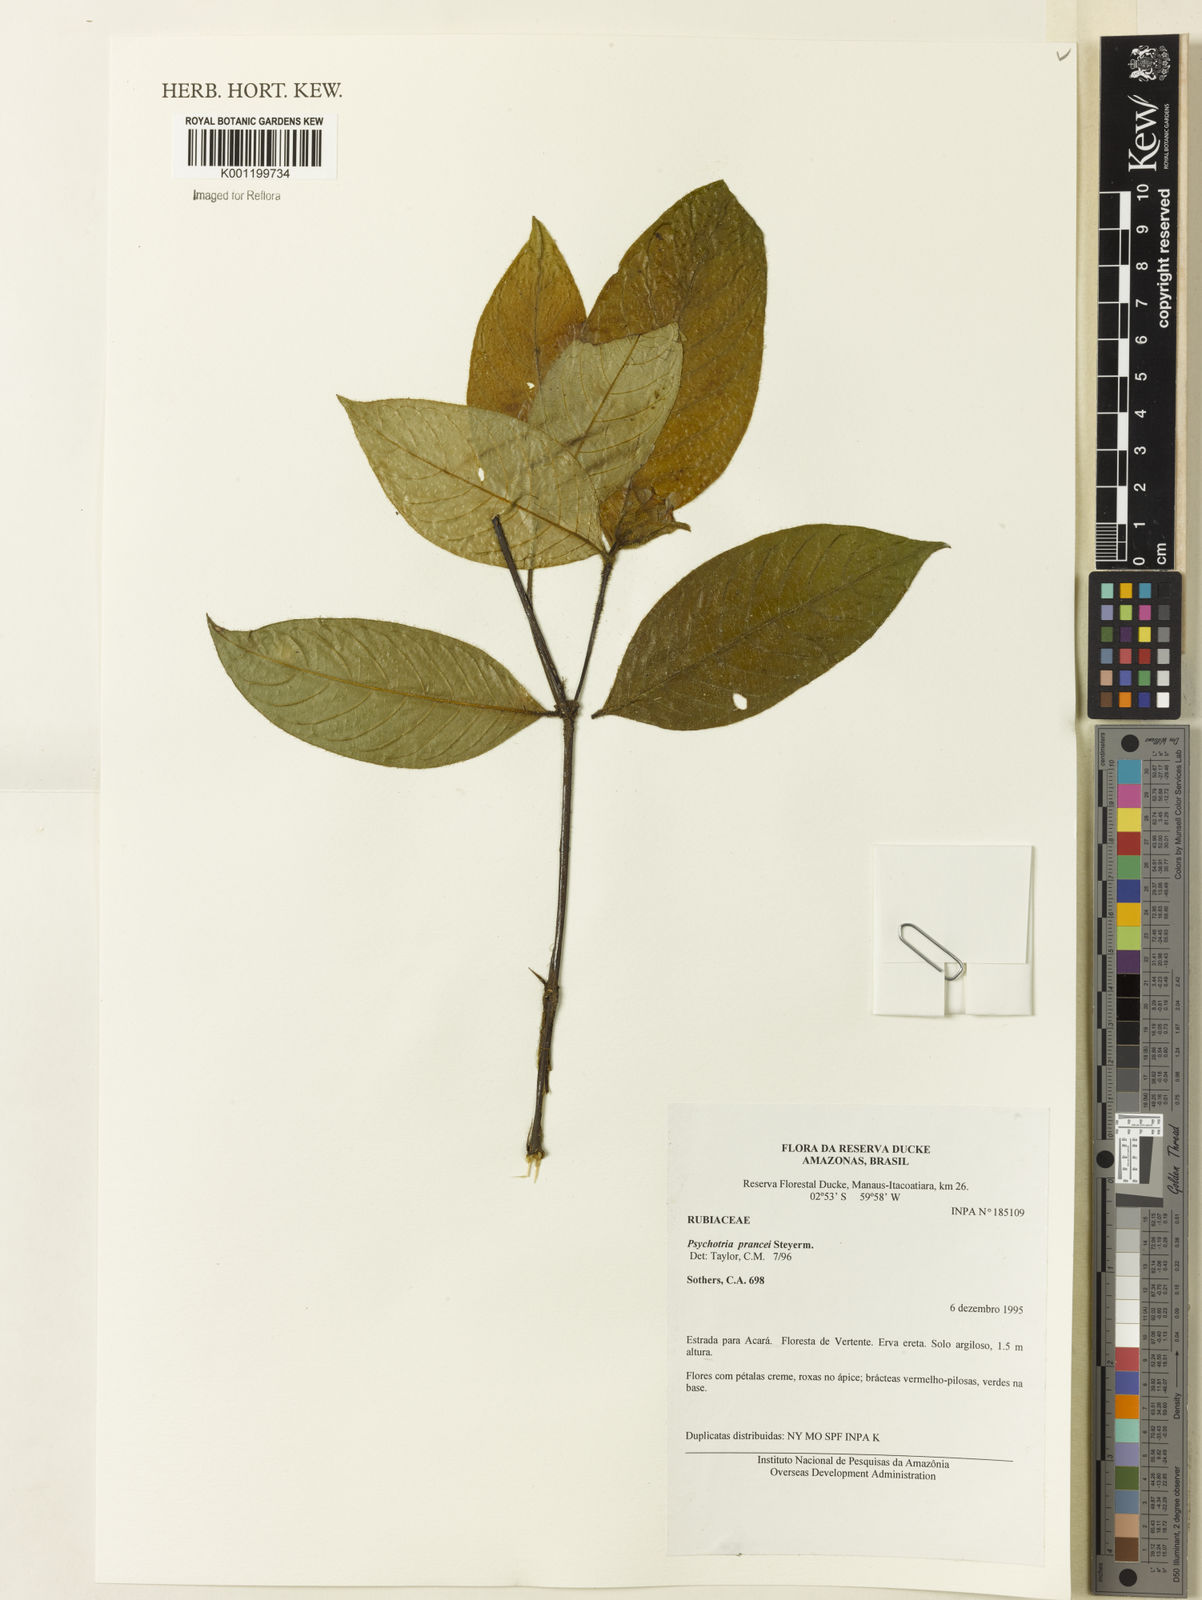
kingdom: Plantae
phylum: Tracheophyta
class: Magnoliopsida
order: Gentianales
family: Rubiaceae
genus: Palicourea
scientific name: Palicourea prancei
